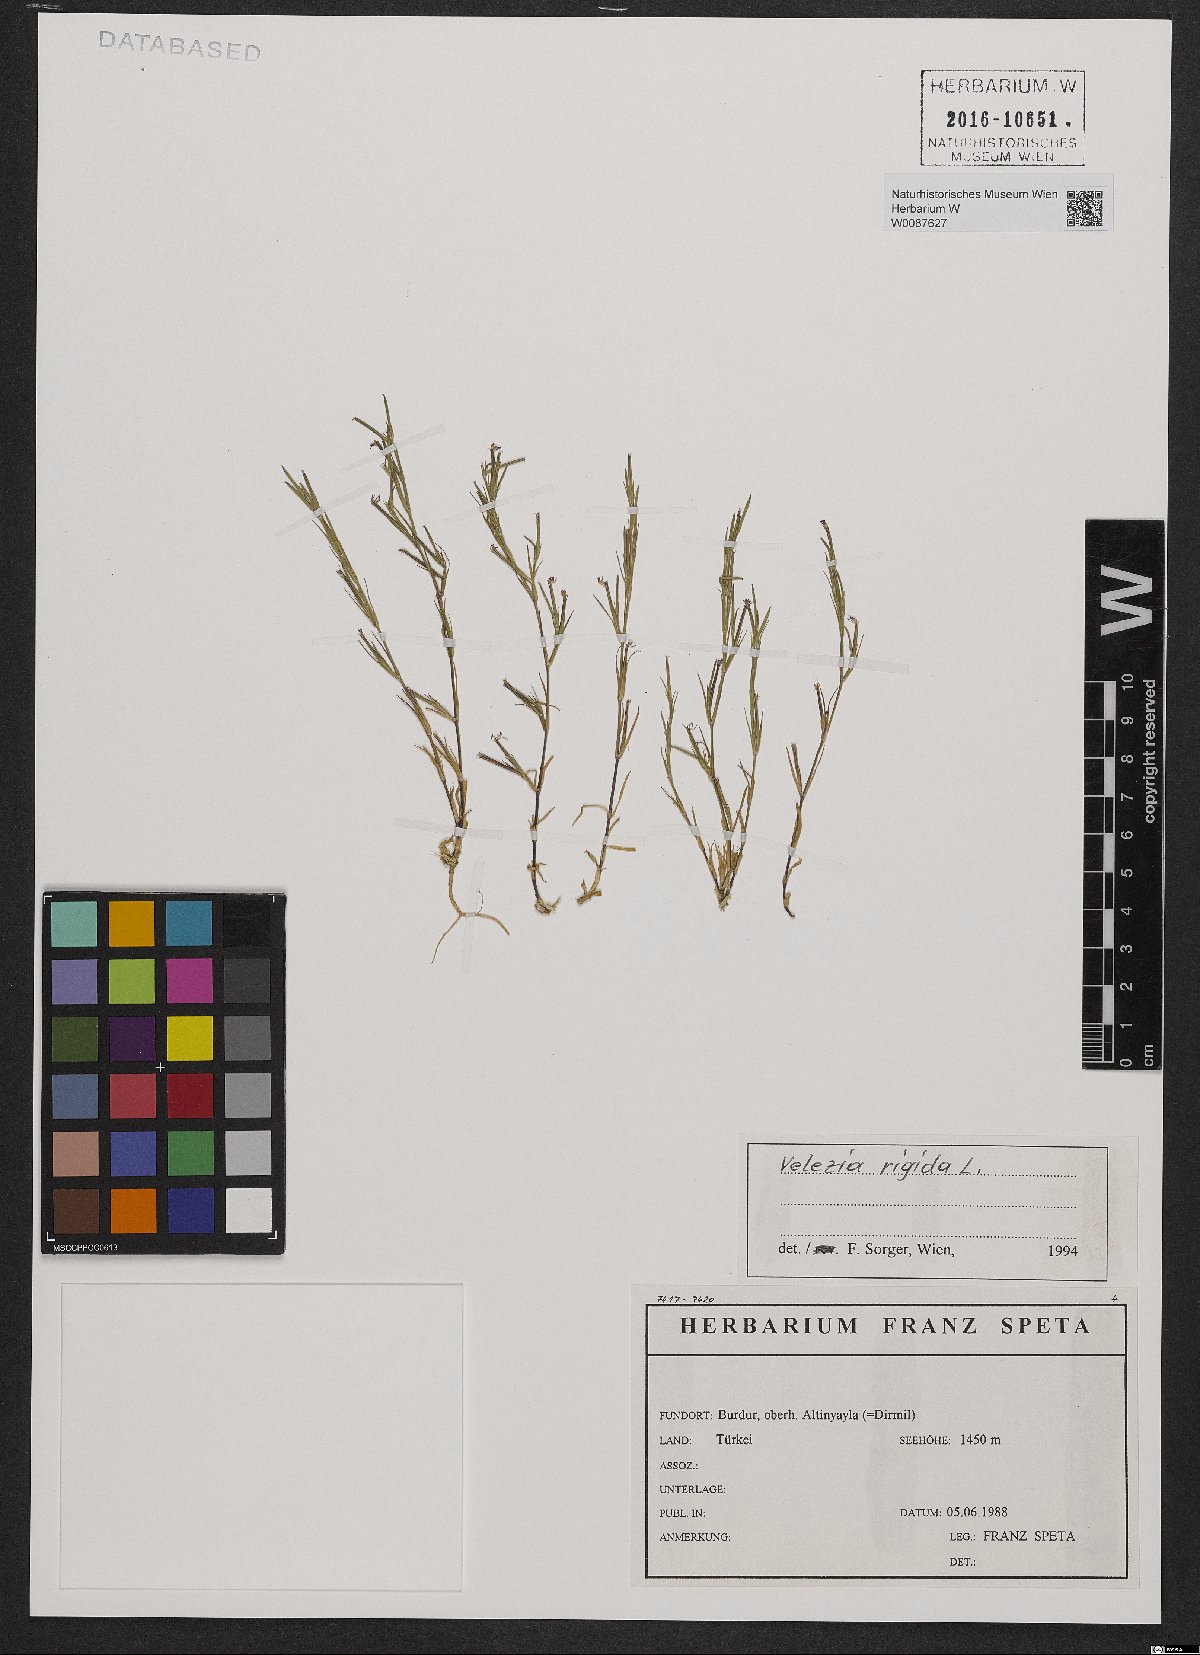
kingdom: Plantae
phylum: Tracheophyta
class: Magnoliopsida
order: Caryophyllales
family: Caryophyllaceae
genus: Dianthus
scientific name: Dianthus nudiflorus
